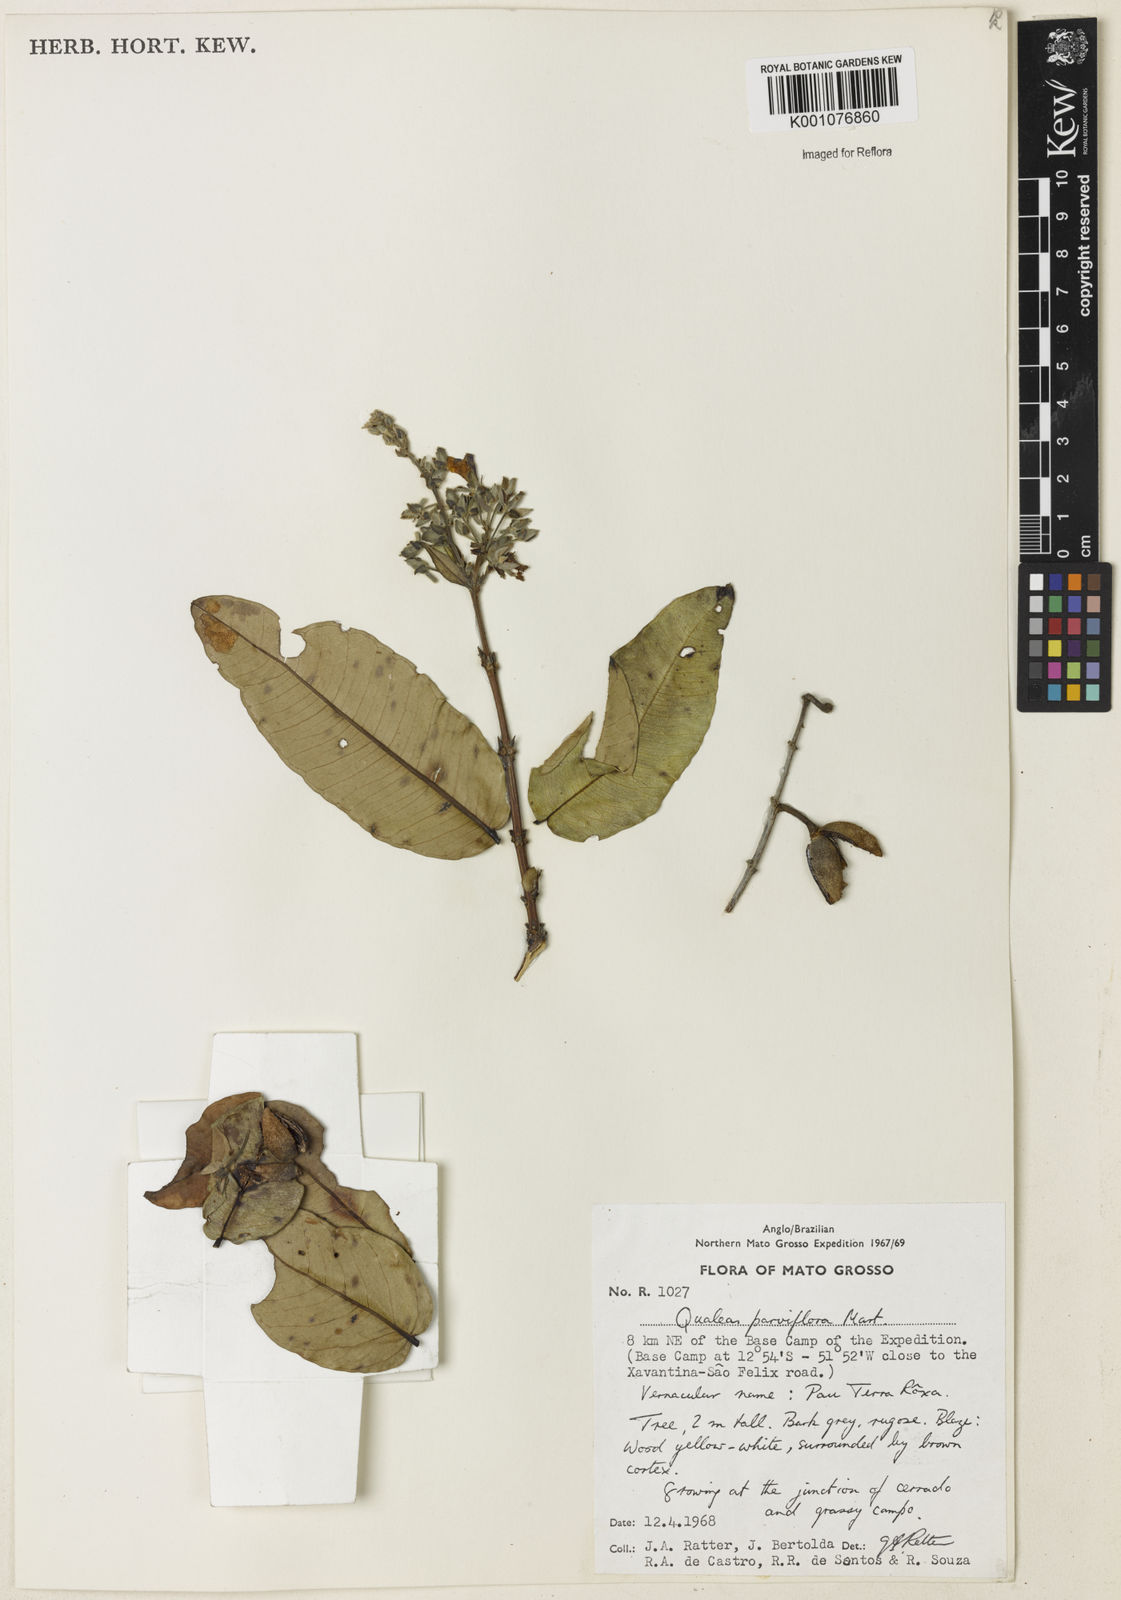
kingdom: Plantae
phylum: Tracheophyta
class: Magnoliopsida
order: Myrtales
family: Vochysiaceae
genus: Qualea
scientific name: Qualea parviflora
